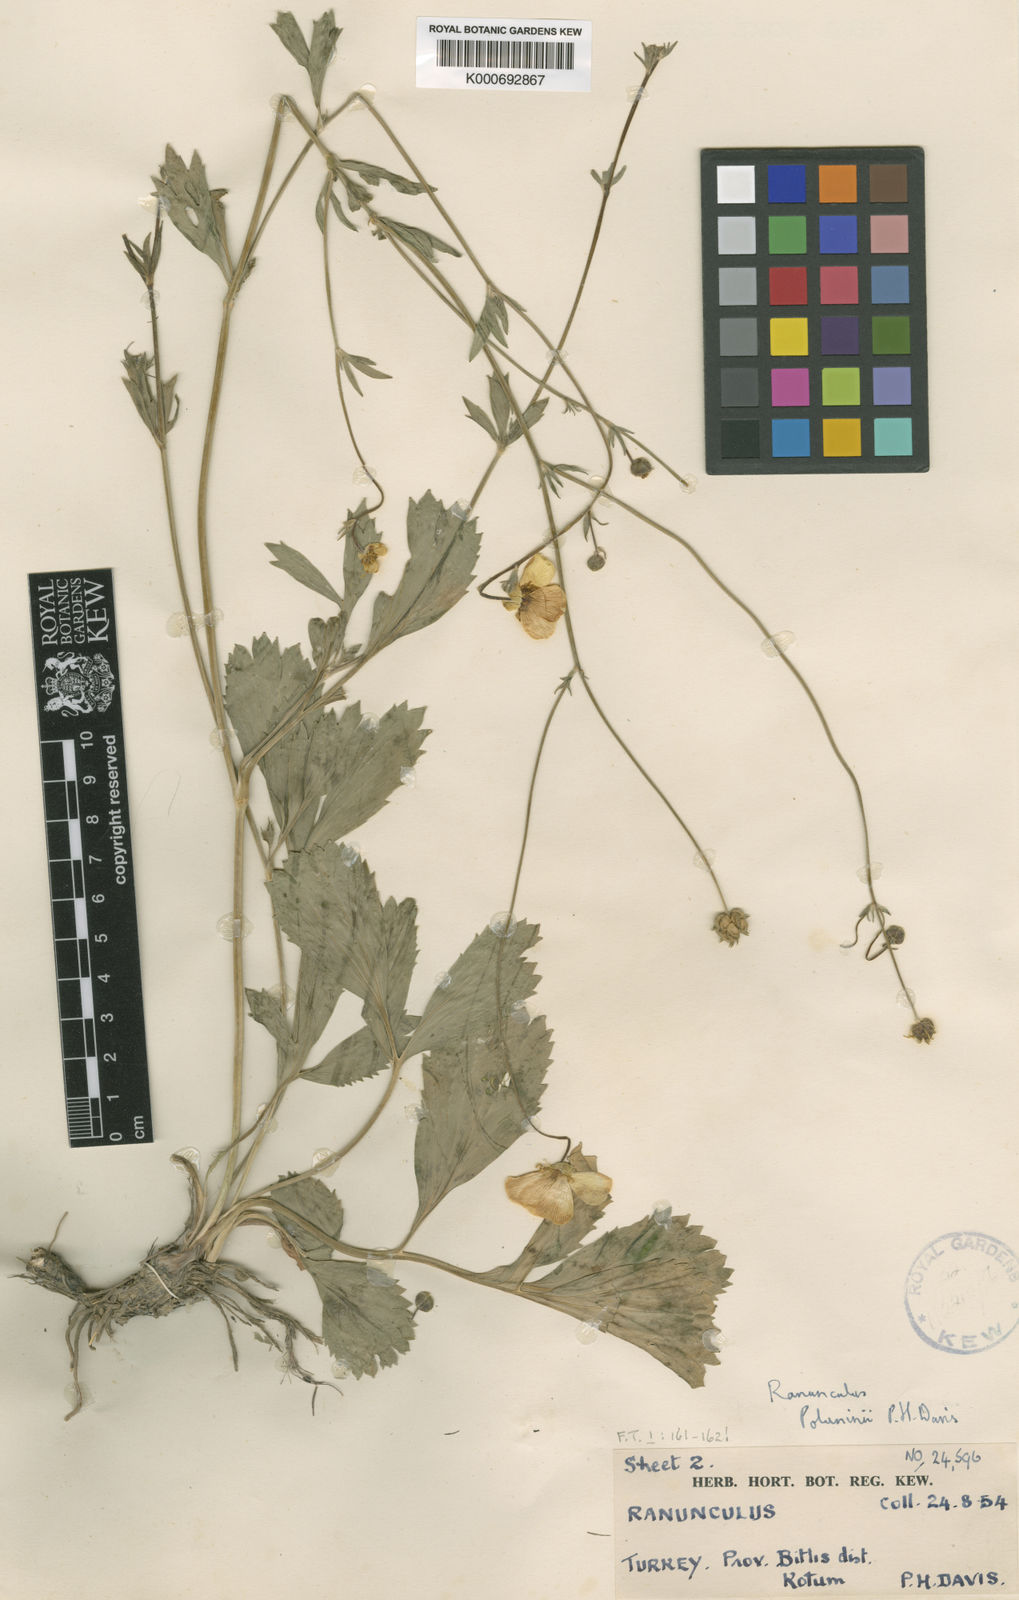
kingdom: Plantae
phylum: Tracheophyta
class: Magnoliopsida
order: Ranunculales
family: Ranunculaceae
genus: Ranunculus
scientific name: Ranunculus poluninii
